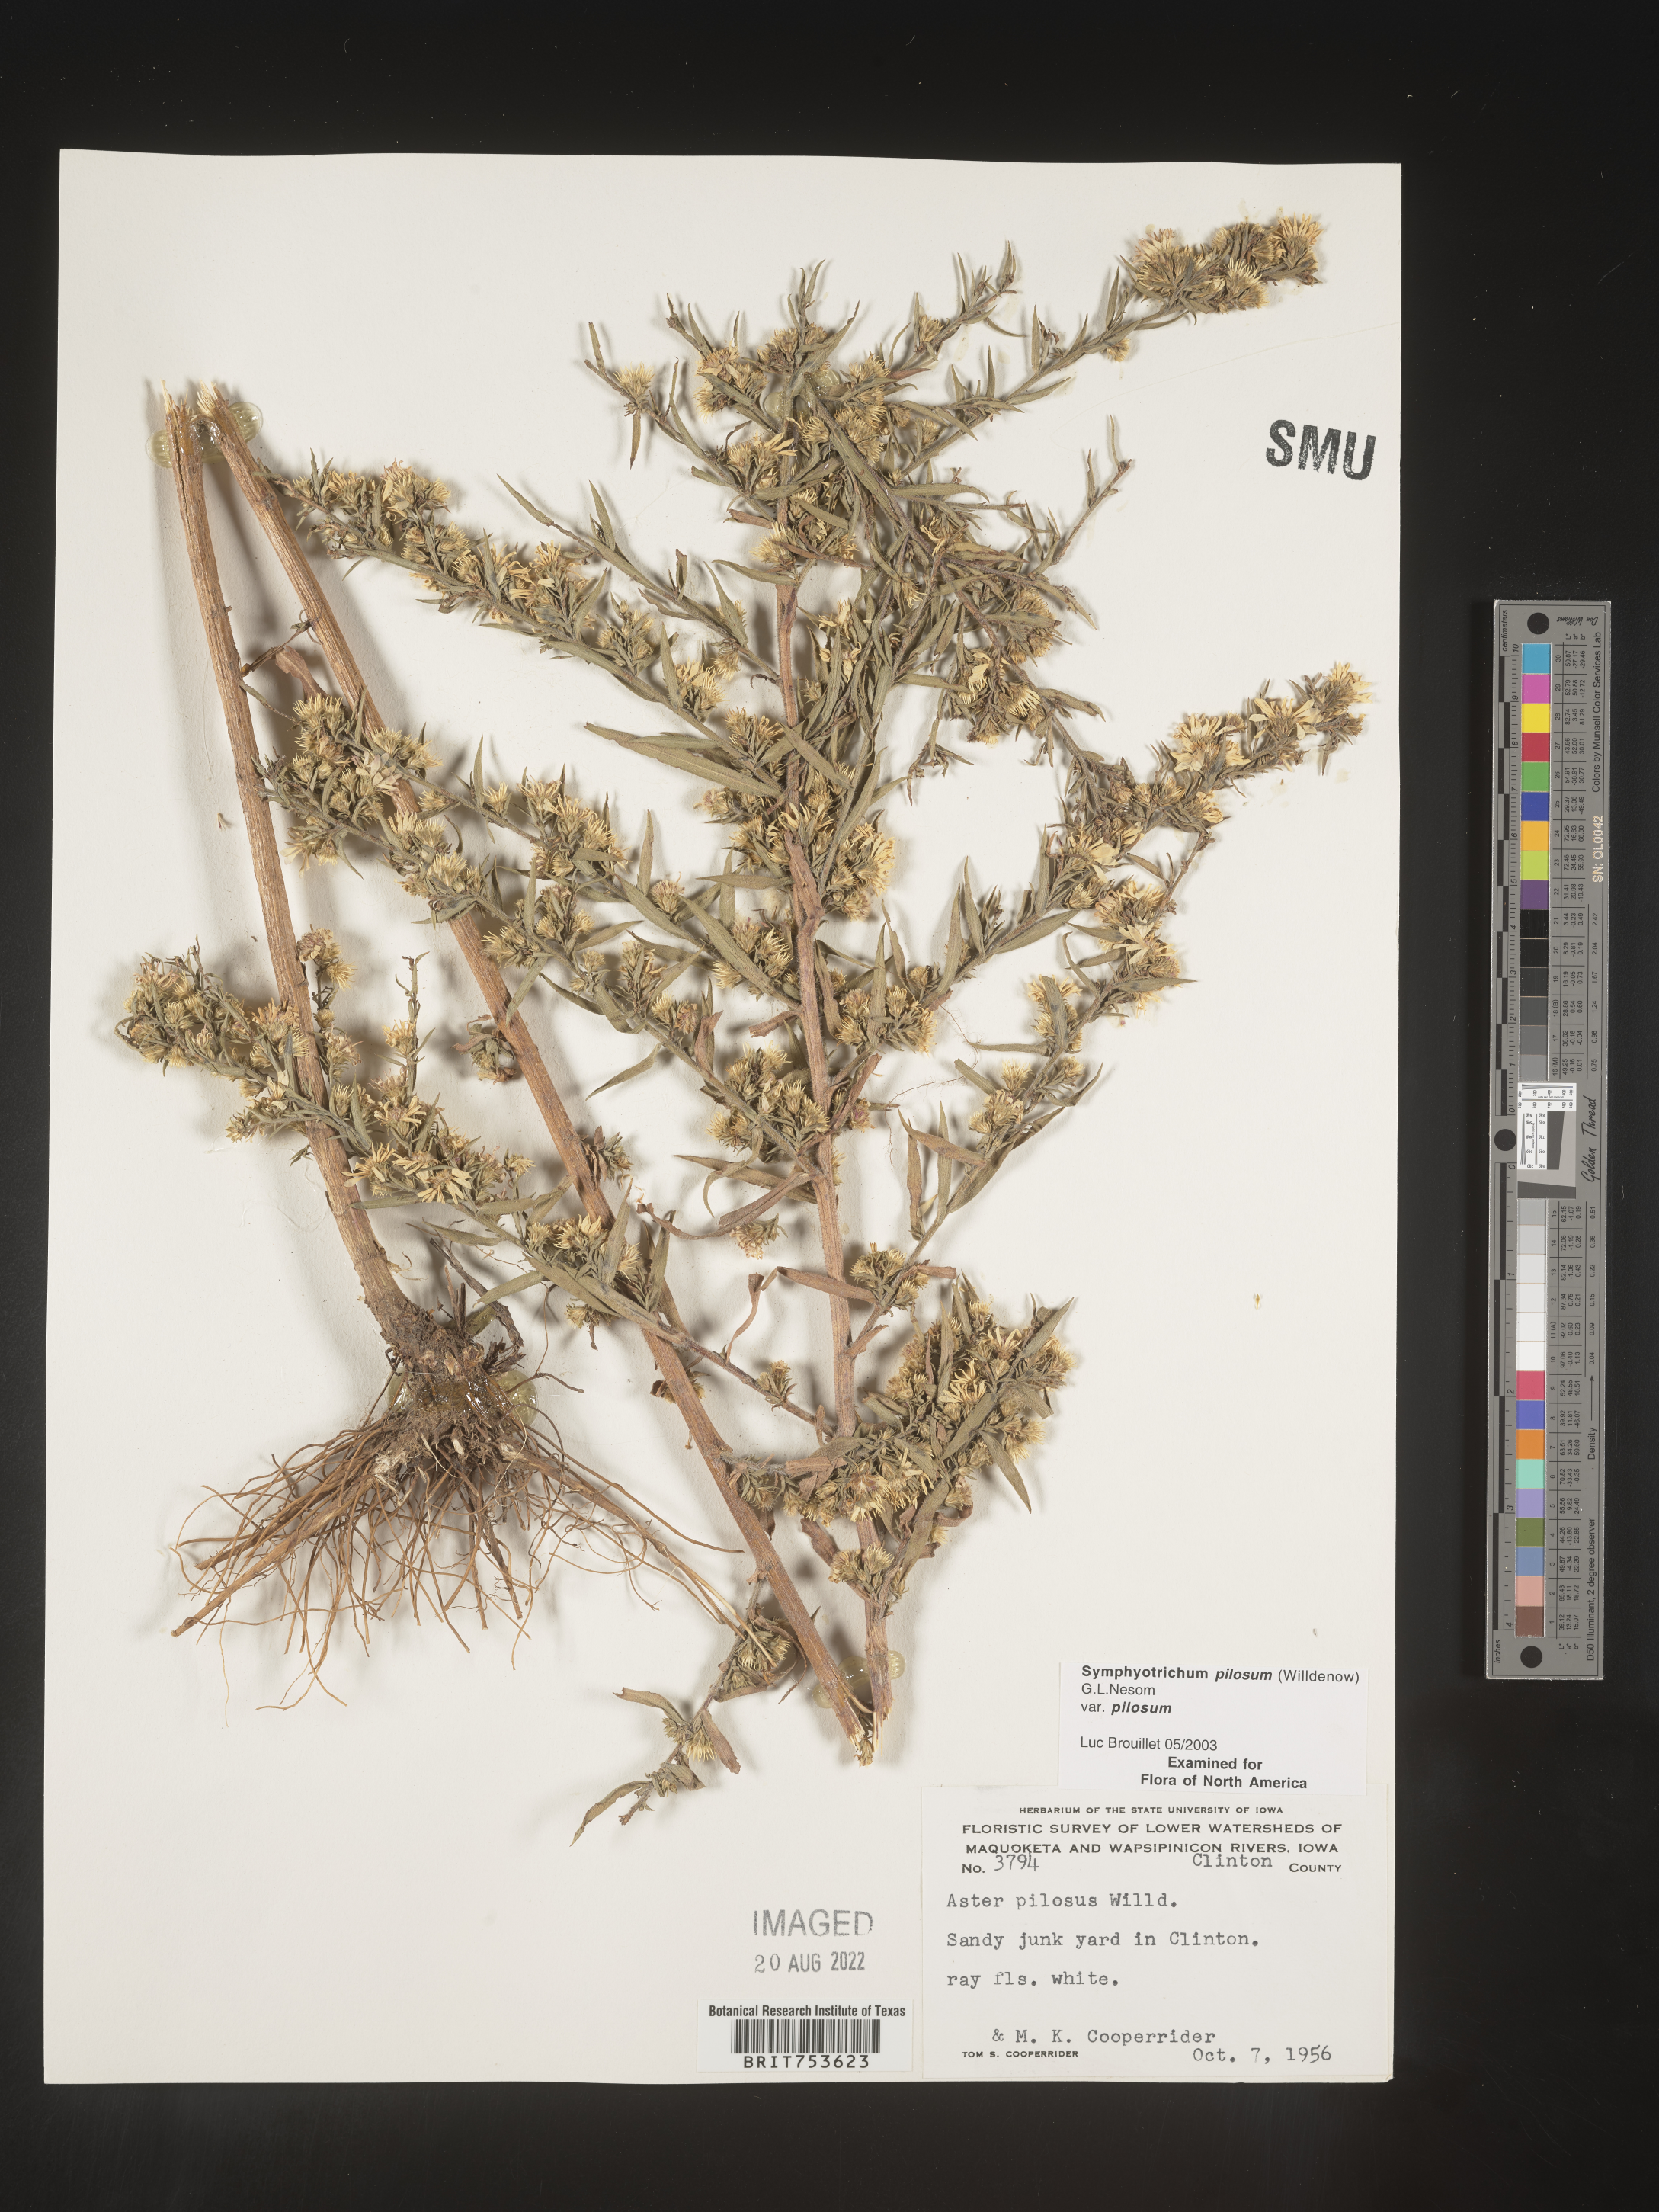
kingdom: Plantae
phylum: Tracheophyta
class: Magnoliopsida
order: Asterales
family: Asteraceae
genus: Symphyotrichum
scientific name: Symphyotrichum pilosum
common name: Awl aster
